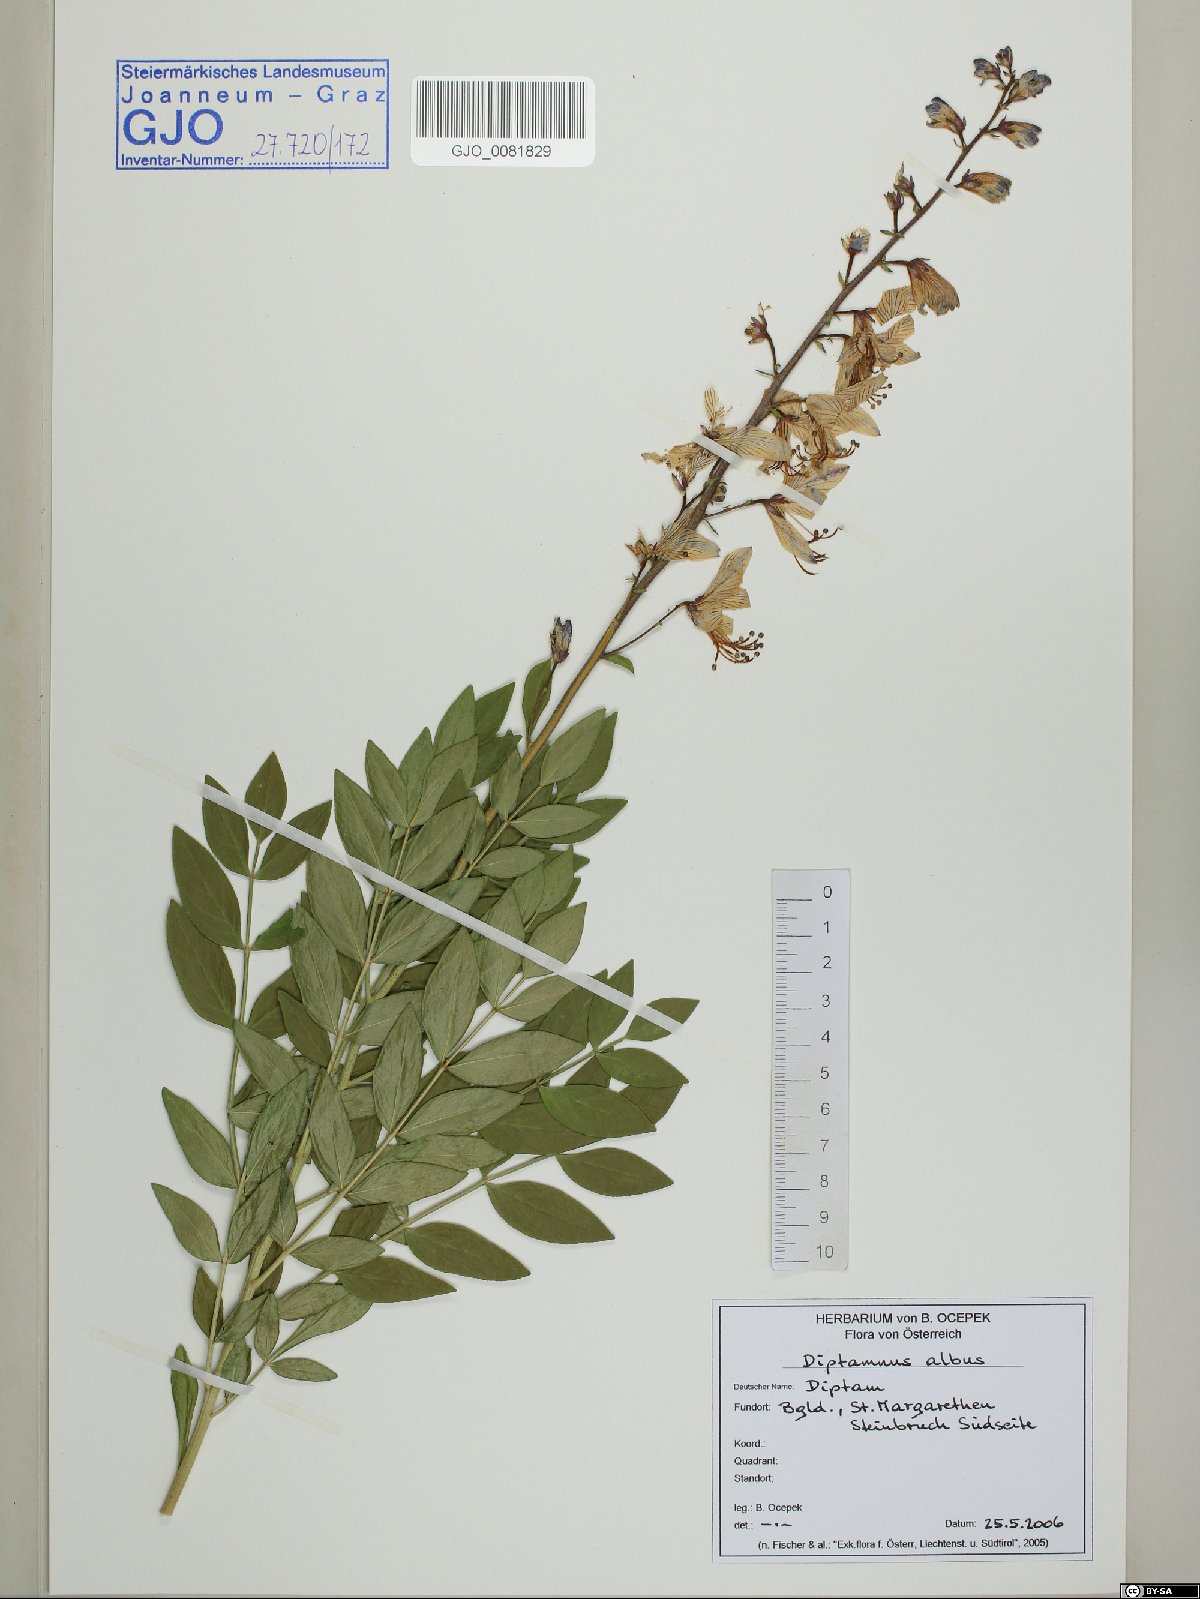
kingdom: Plantae
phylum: Tracheophyta
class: Magnoliopsida
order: Sapindales
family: Rutaceae
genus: Dictamnus
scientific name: Dictamnus albus
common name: Gasplant
